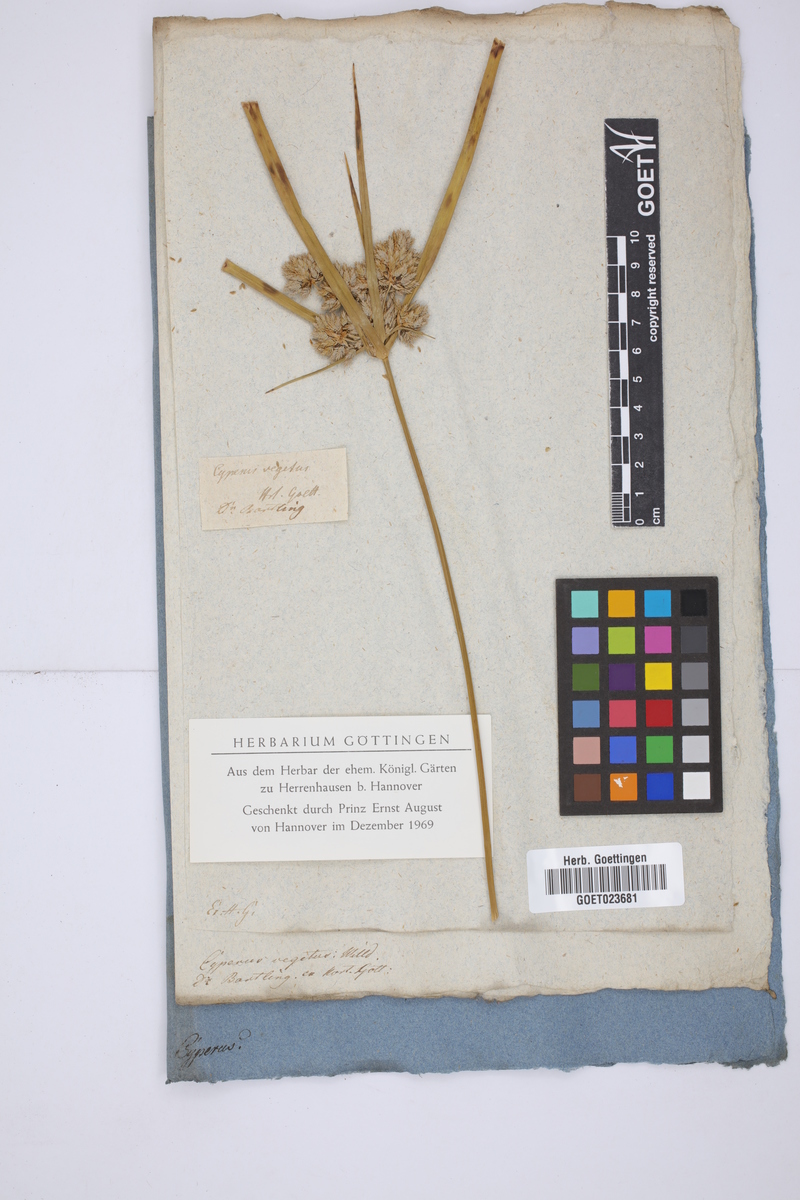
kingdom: Plantae
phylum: Tracheophyta
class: Liliopsida
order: Poales
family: Cyperaceae
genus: Cyperus
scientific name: Cyperus eragrostis
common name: Tall flatsedge
